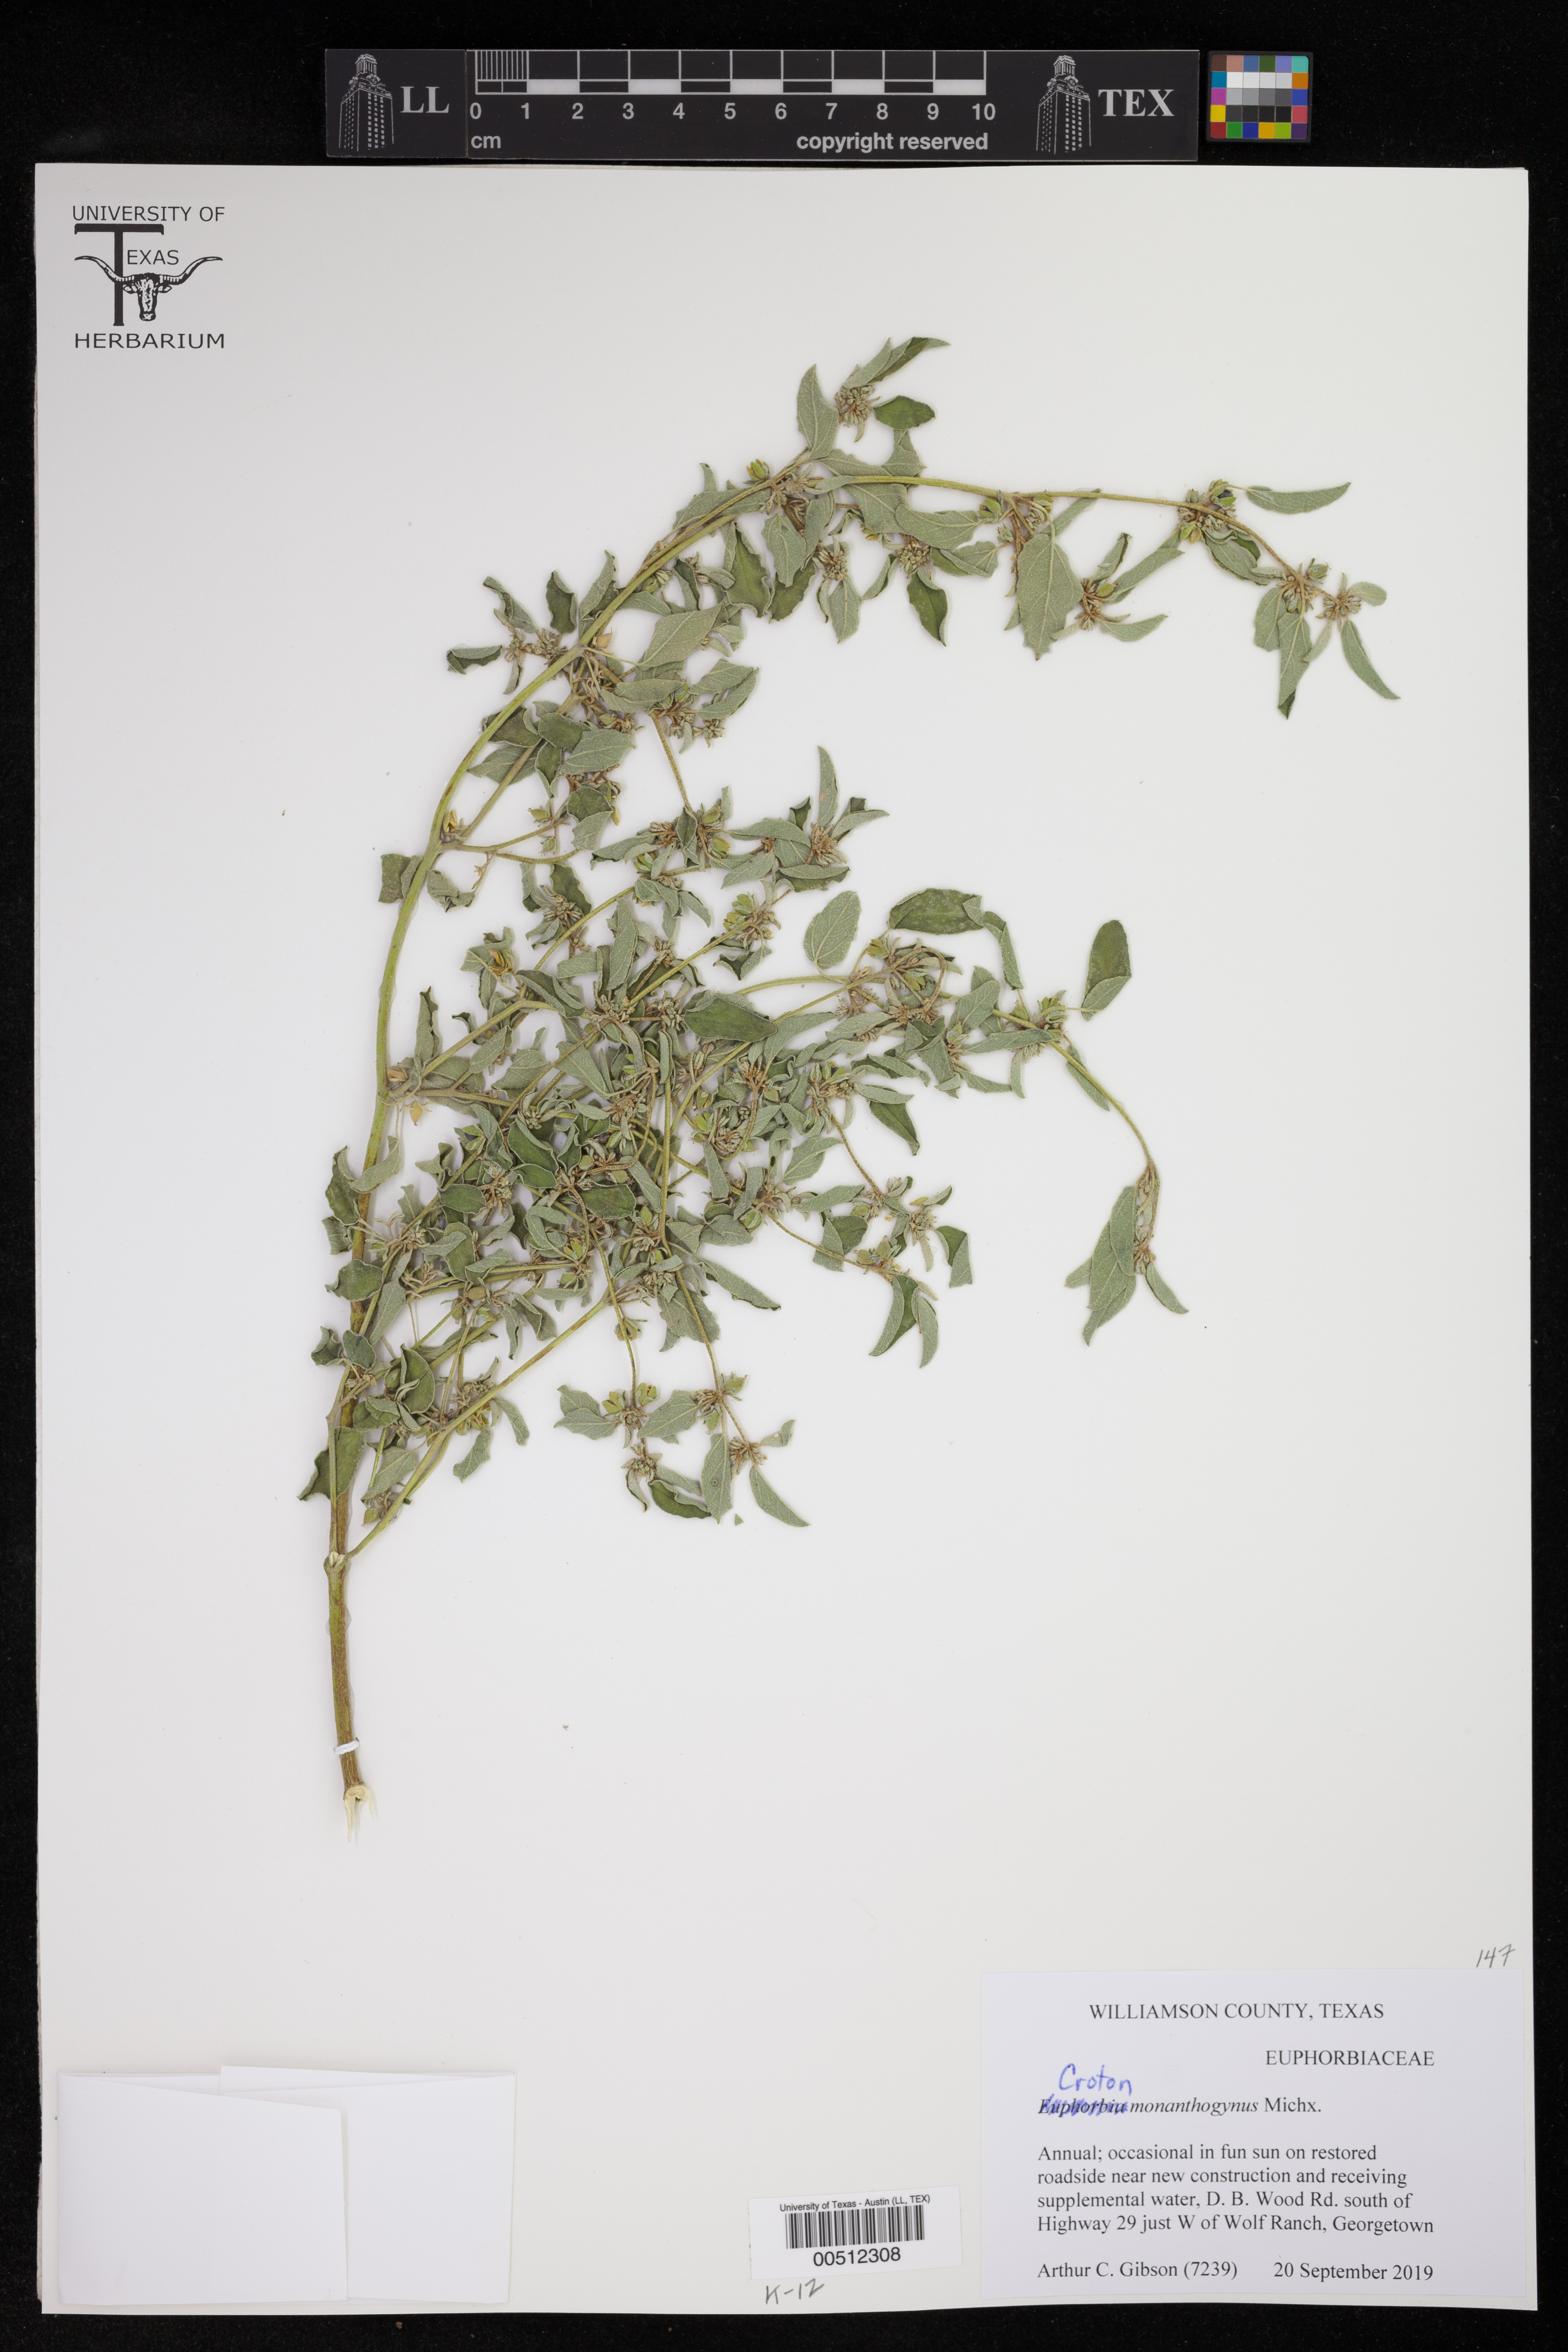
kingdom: Plantae
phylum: Tracheophyta
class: Magnoliopsida
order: Malpighiales
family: Euphorbiaceae
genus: Croton
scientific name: Croton monanthogynus
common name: One-seed croton
